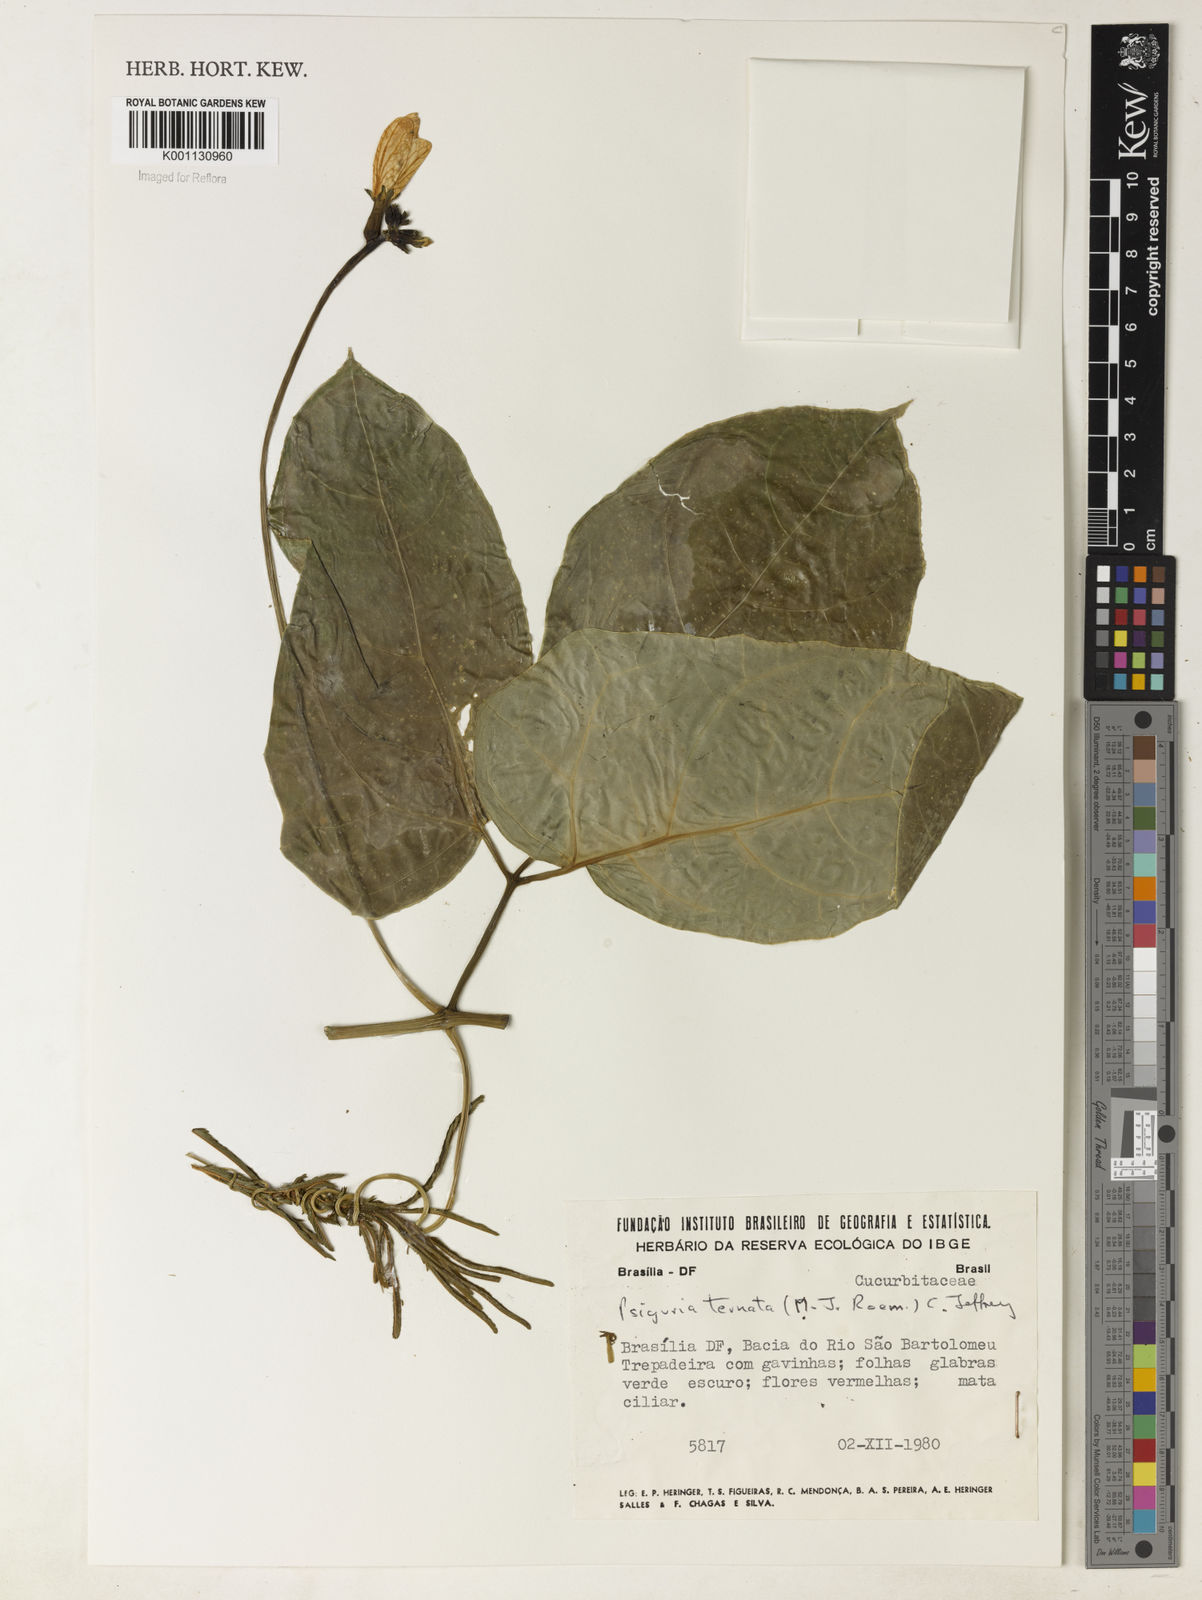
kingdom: Plantae
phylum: Tracheophyta
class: Magnoliopsida
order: Cucurbitales
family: Cucurbitaceae
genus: Psiguria
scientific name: Psiguria ternata
